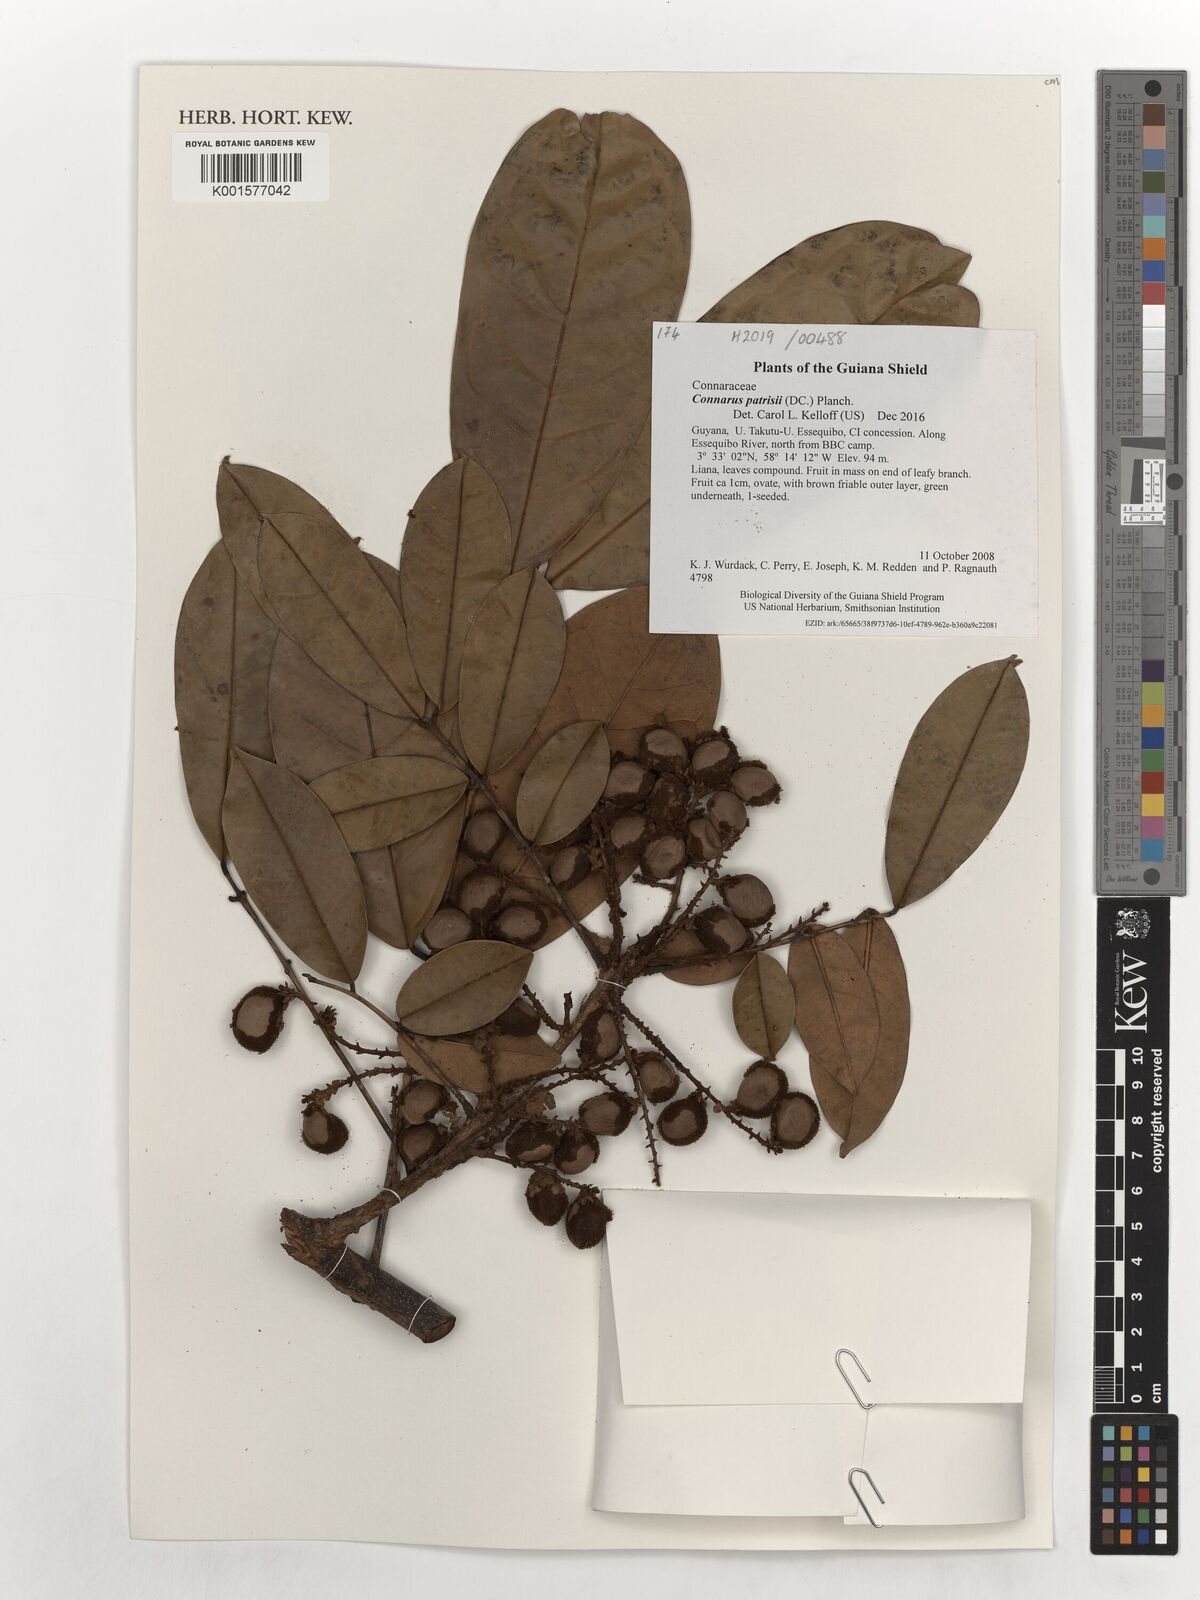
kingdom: Plantae
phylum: Tracheophyta
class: Magnoliopsida
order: Oxalidales
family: Connaraceae
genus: Connarus
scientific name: Connarus patrisii
